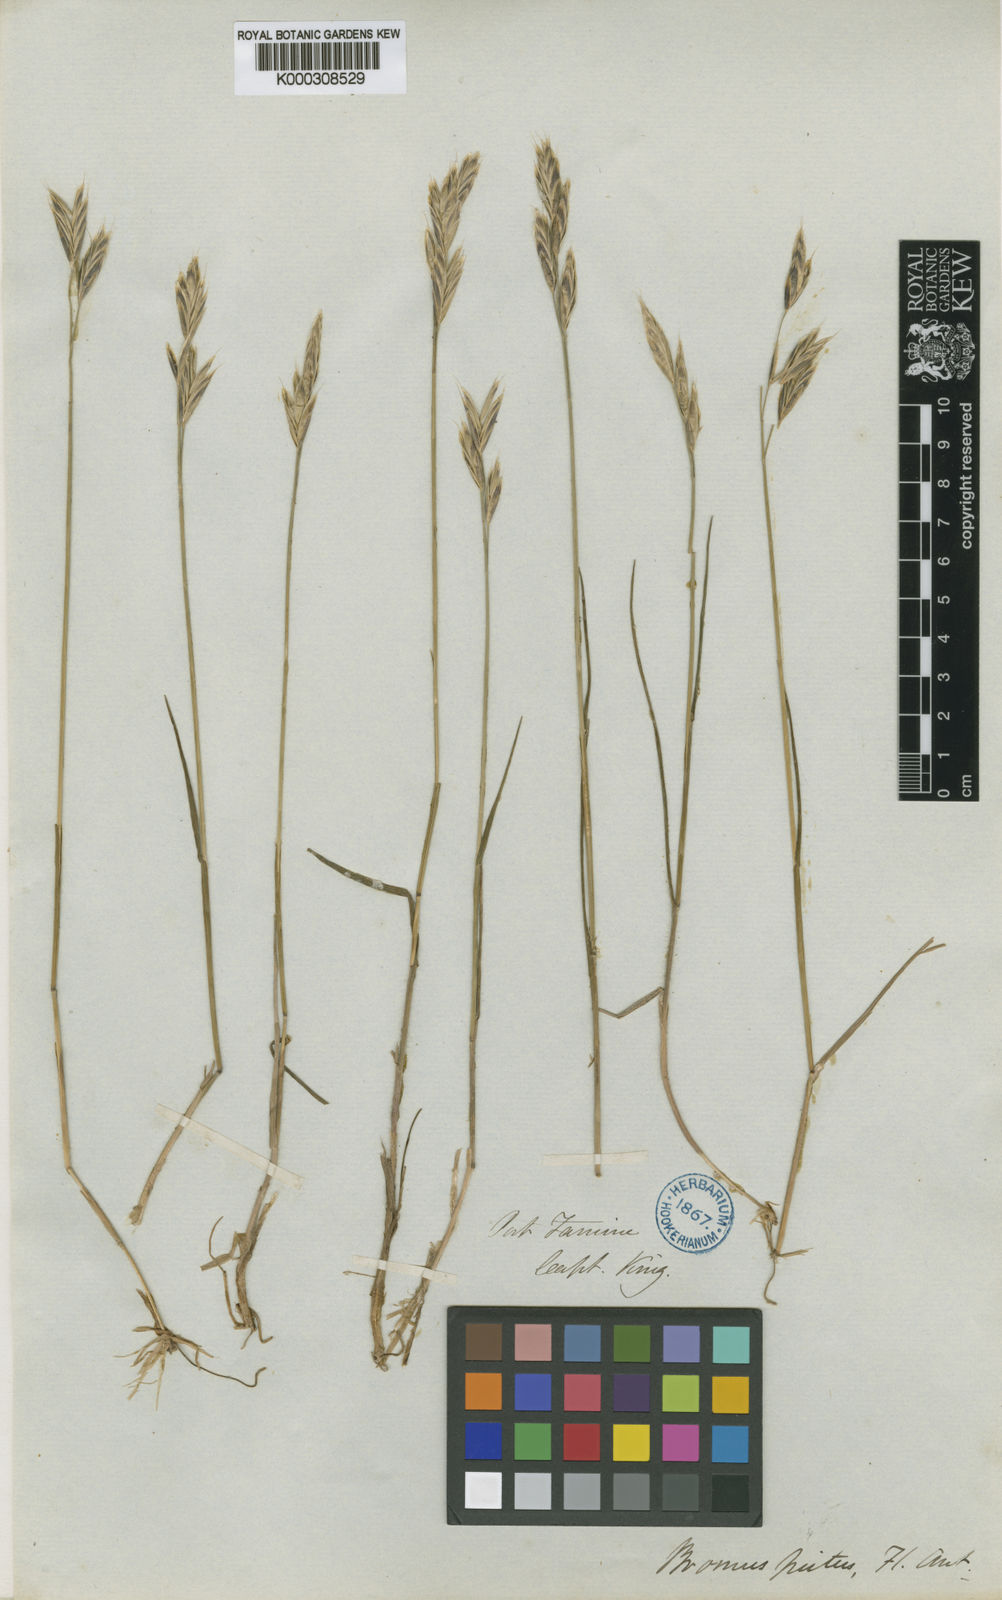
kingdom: Plantae
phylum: Tracheophyta
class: Liliopsida
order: Poales
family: Poaceae
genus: Bromus
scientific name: Bromus setifolius
